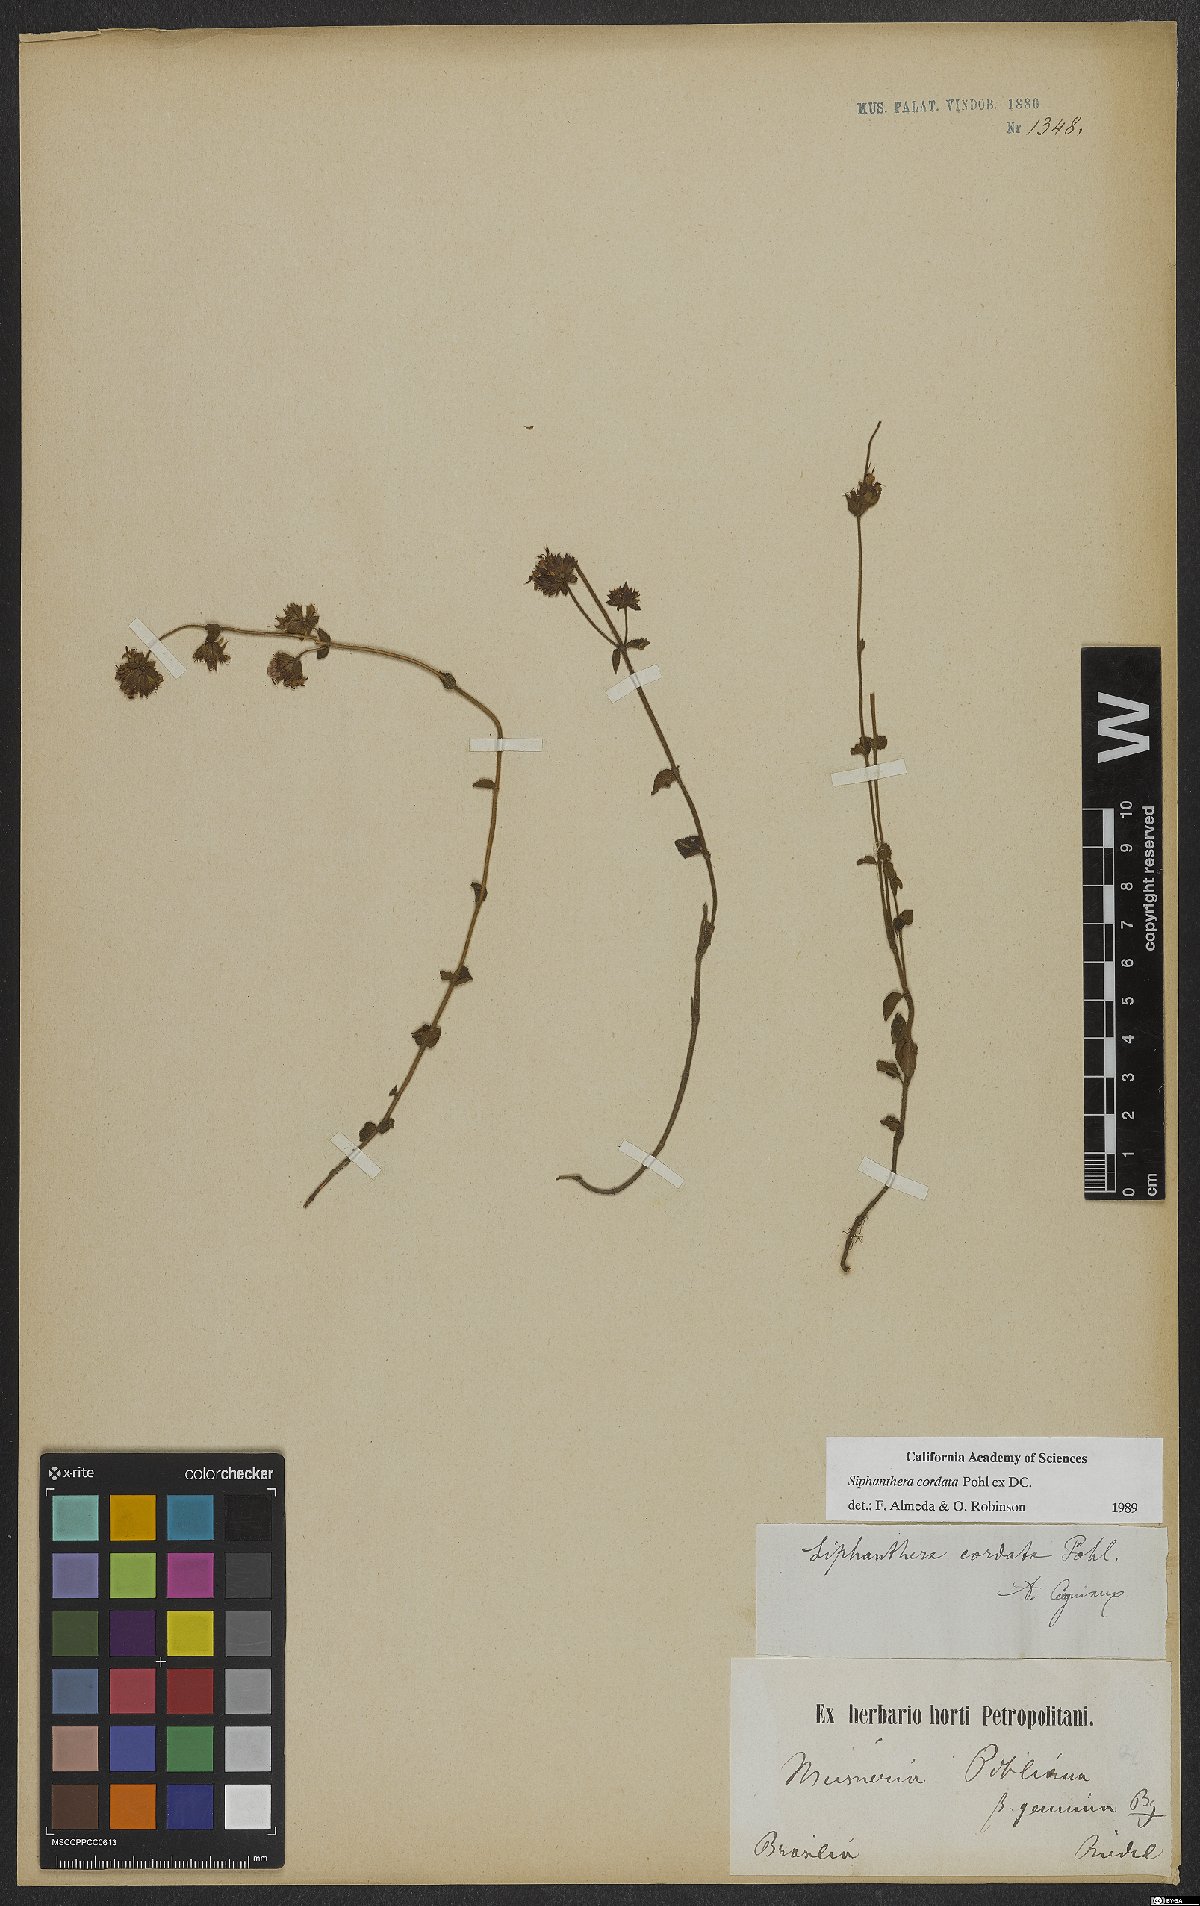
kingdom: Plantae
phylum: Tracheophyta
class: Magnoliopsida
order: Myrtales
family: Melastomataceae
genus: Siphanthera
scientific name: Siphanthera cordata
